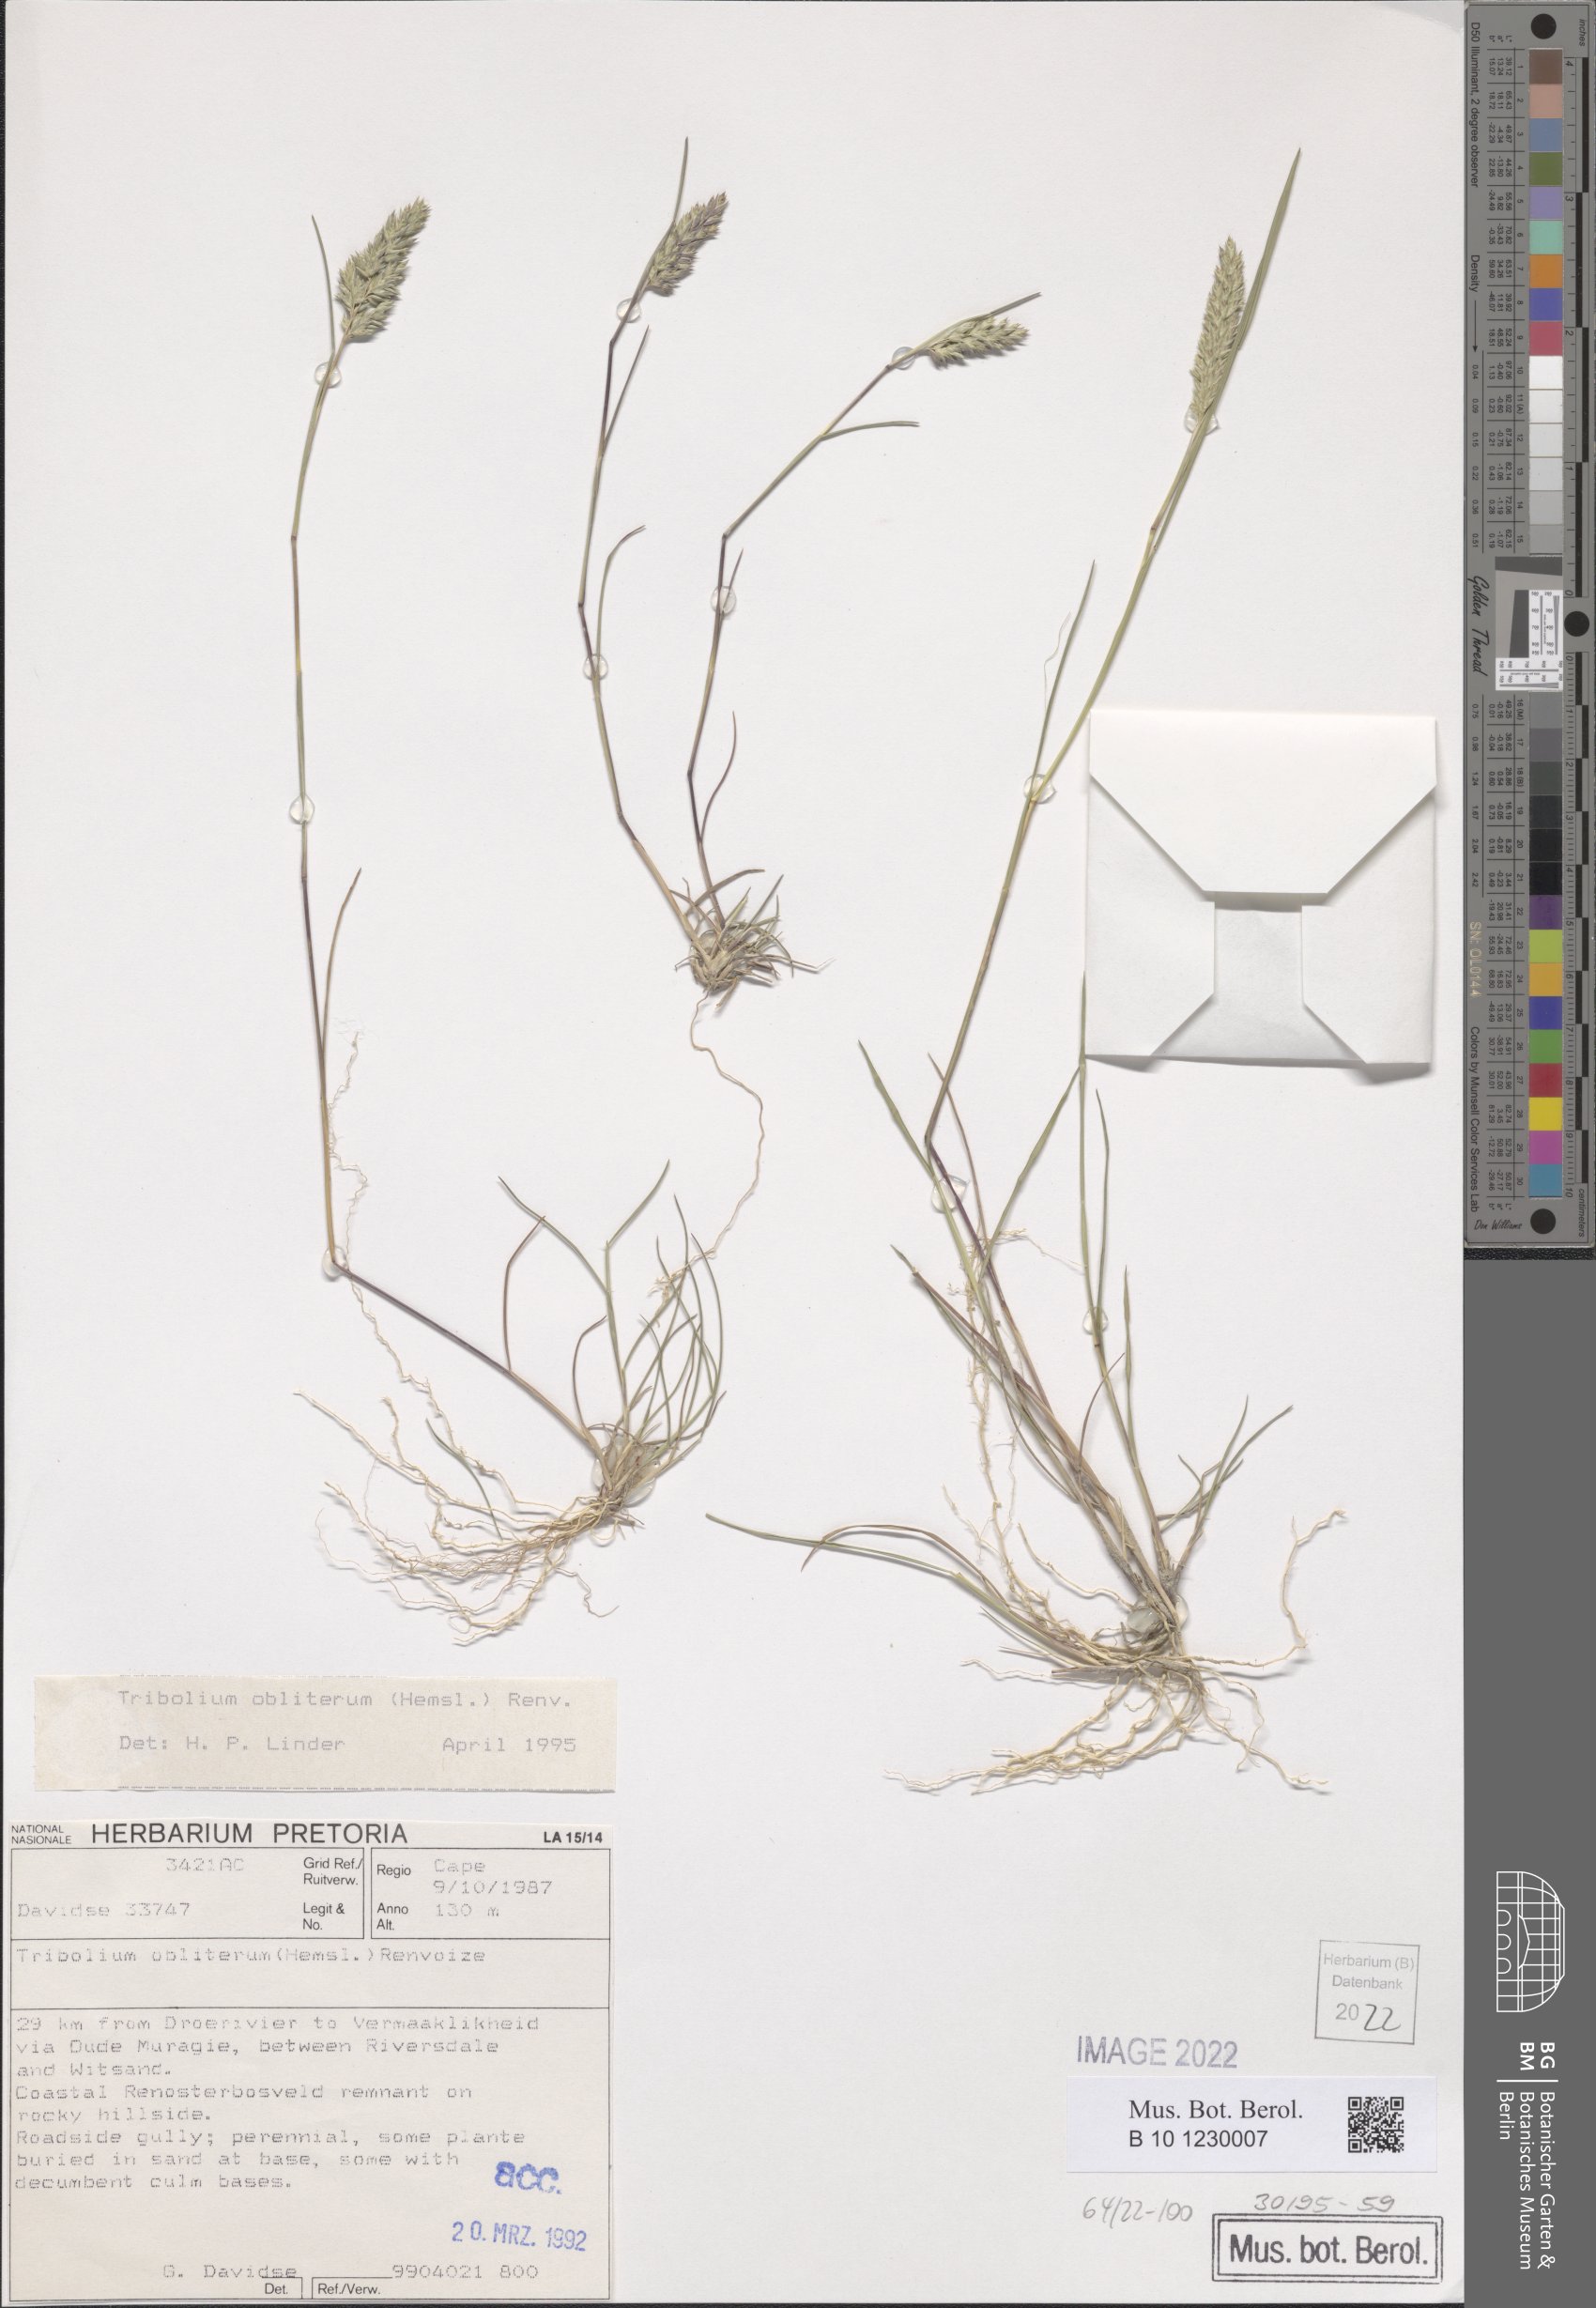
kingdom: Plantae
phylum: Tracheophyta
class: Liliopsida
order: Poales
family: Poaceae
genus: Tribolium
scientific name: Tribolium obliterum
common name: Capetown grass
